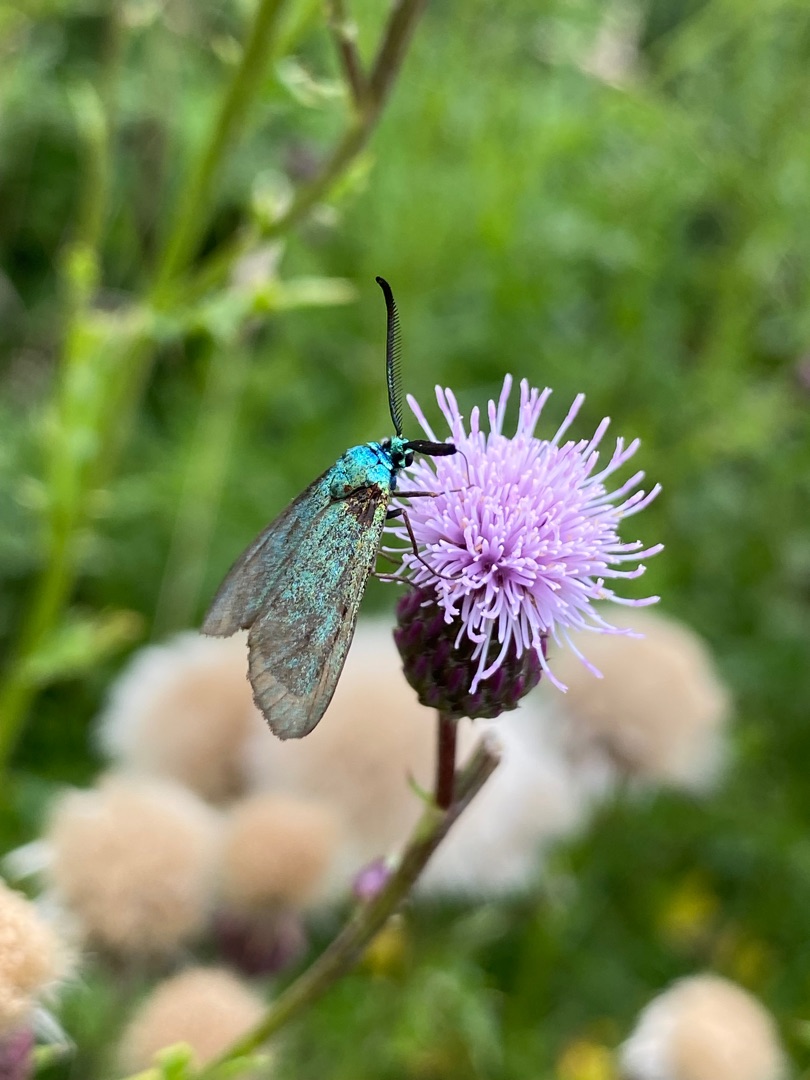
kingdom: Plantae
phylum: Tracheophyta
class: Magnoliopsida
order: Asterales
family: Asteraceae
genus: Cirsium
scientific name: Cirsium arvense
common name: Ager-tidsel
